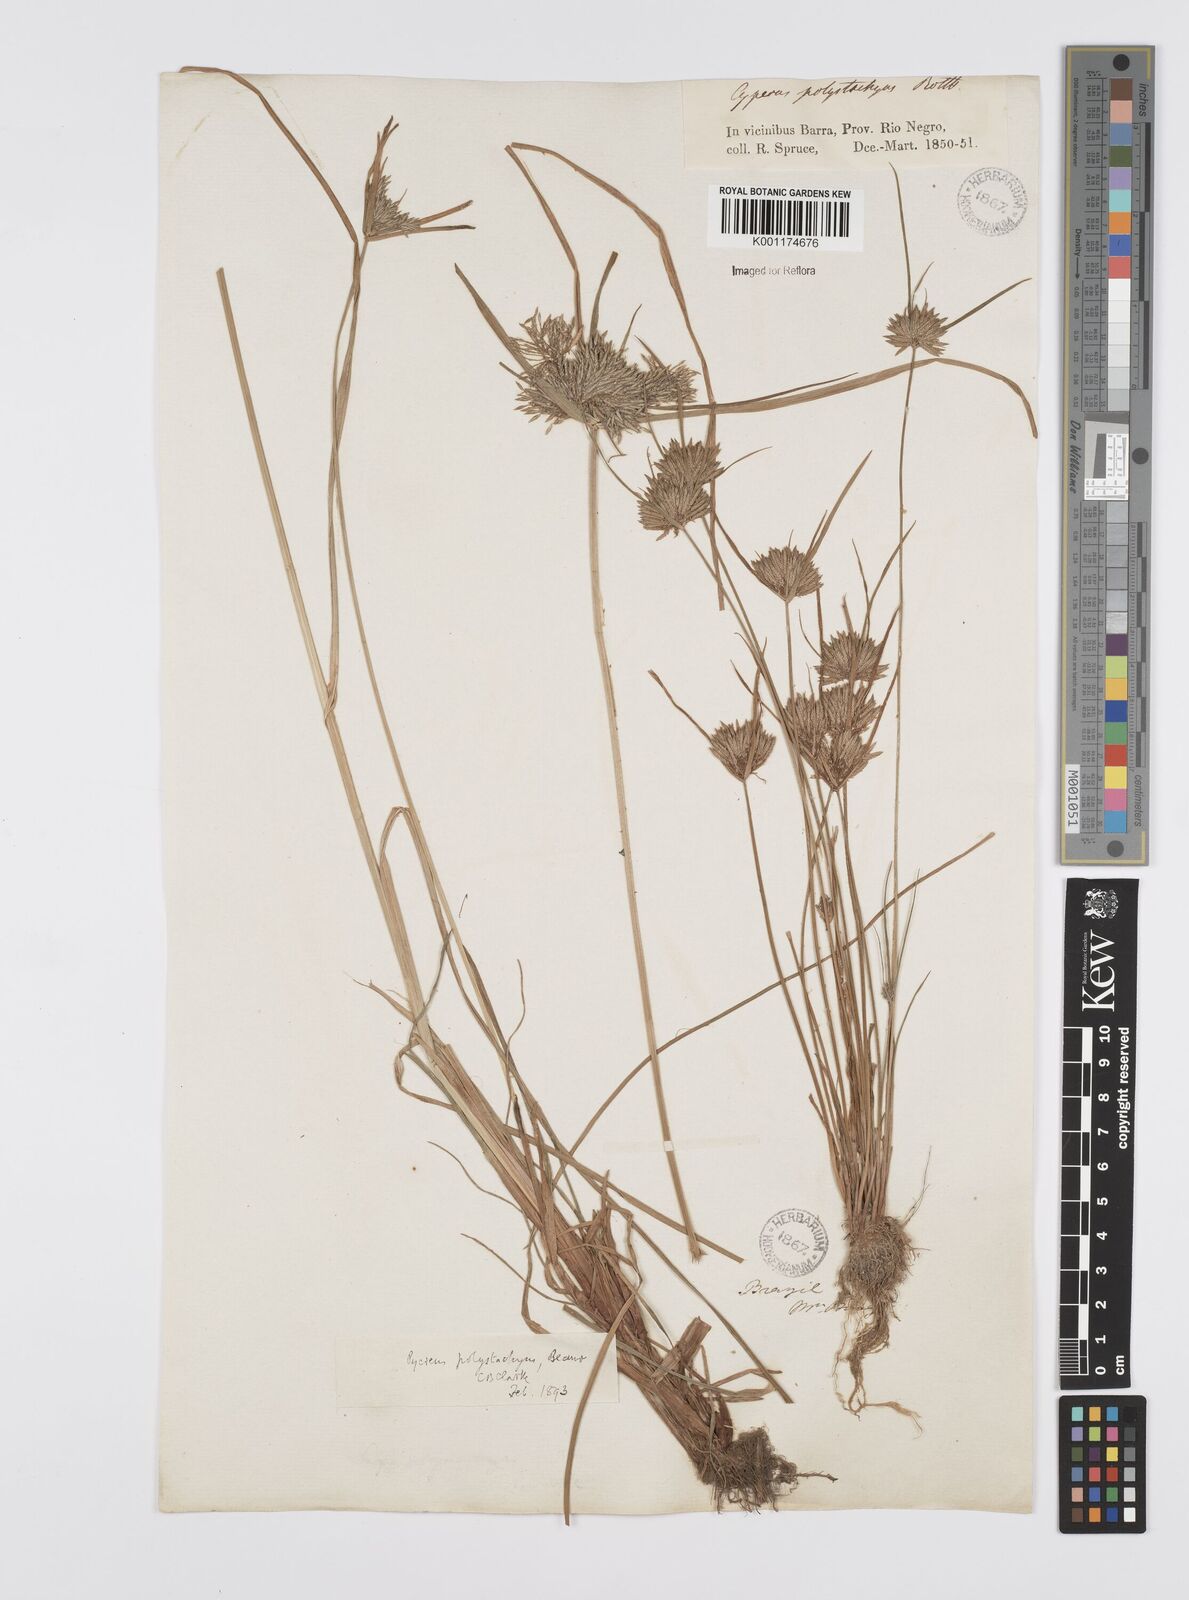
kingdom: Plantae
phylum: Tracheophyta
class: Liliopsida
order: Poales
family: Cyperaceae
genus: Cyperus
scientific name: Cyperus polystachyos
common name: Bunchy flat sedge
